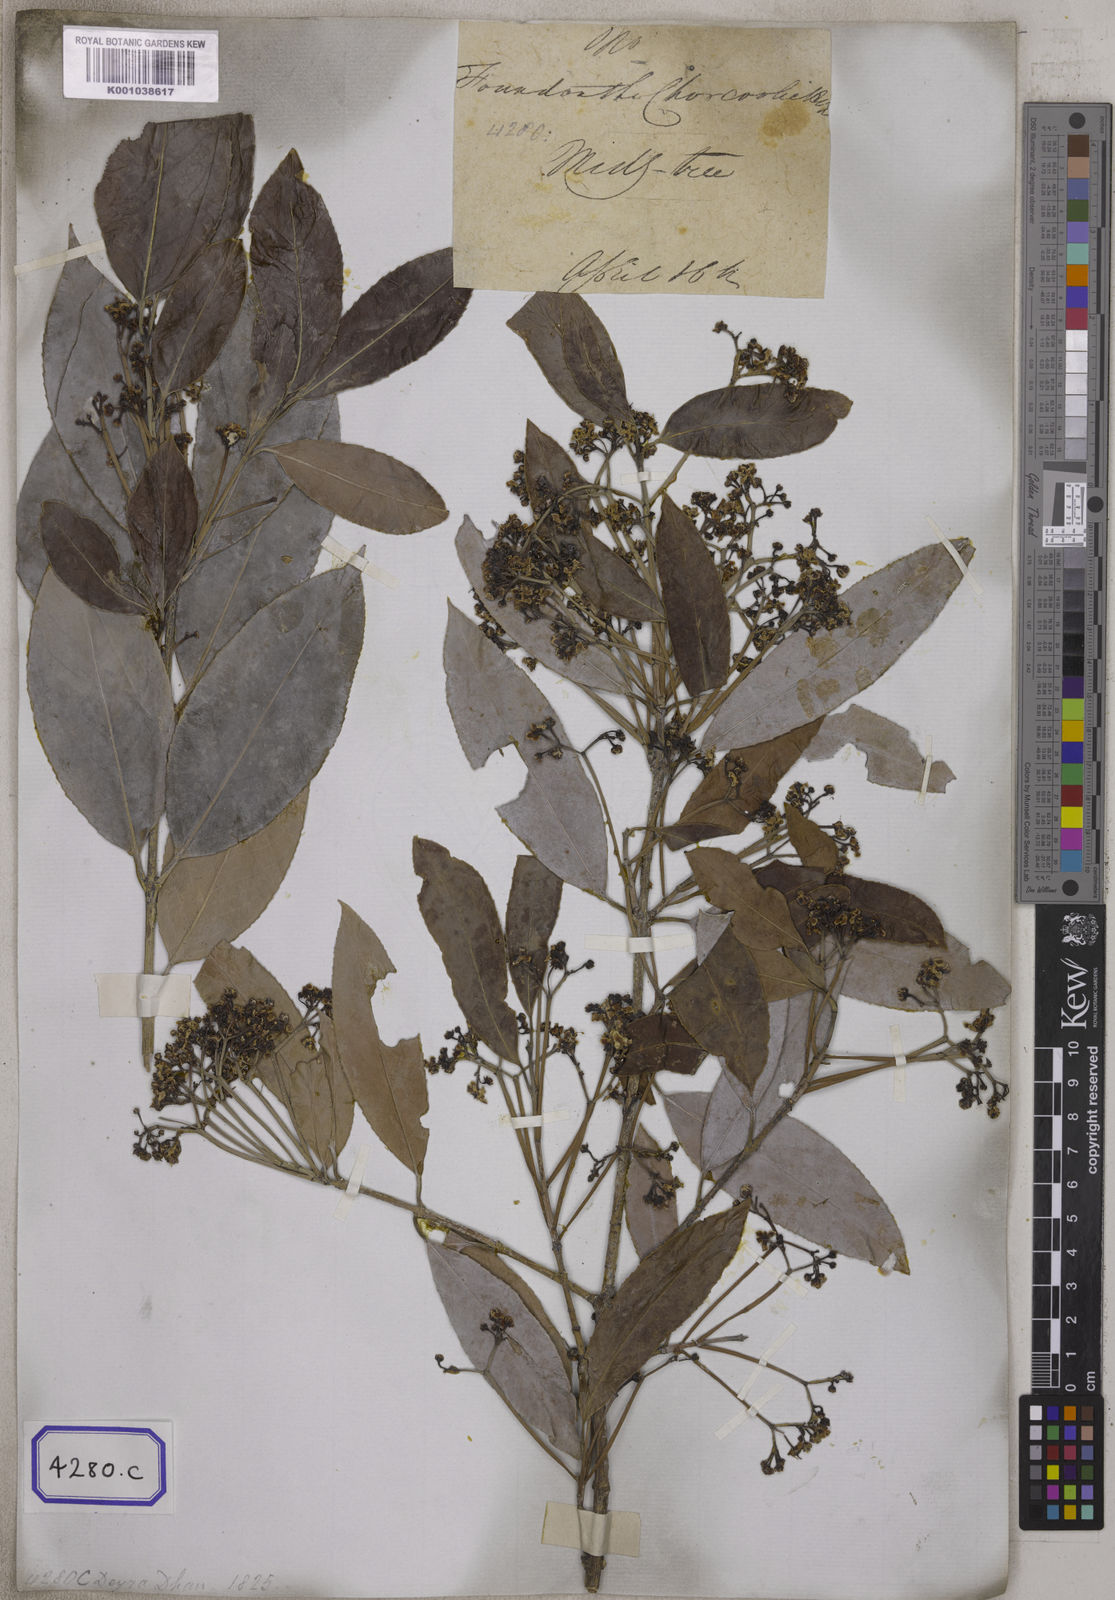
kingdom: Plantae
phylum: Tracheophyta
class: Magnoliopsida
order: Celastrales
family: Celastraceae
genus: Euonymus
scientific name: Euonymus lucidus
